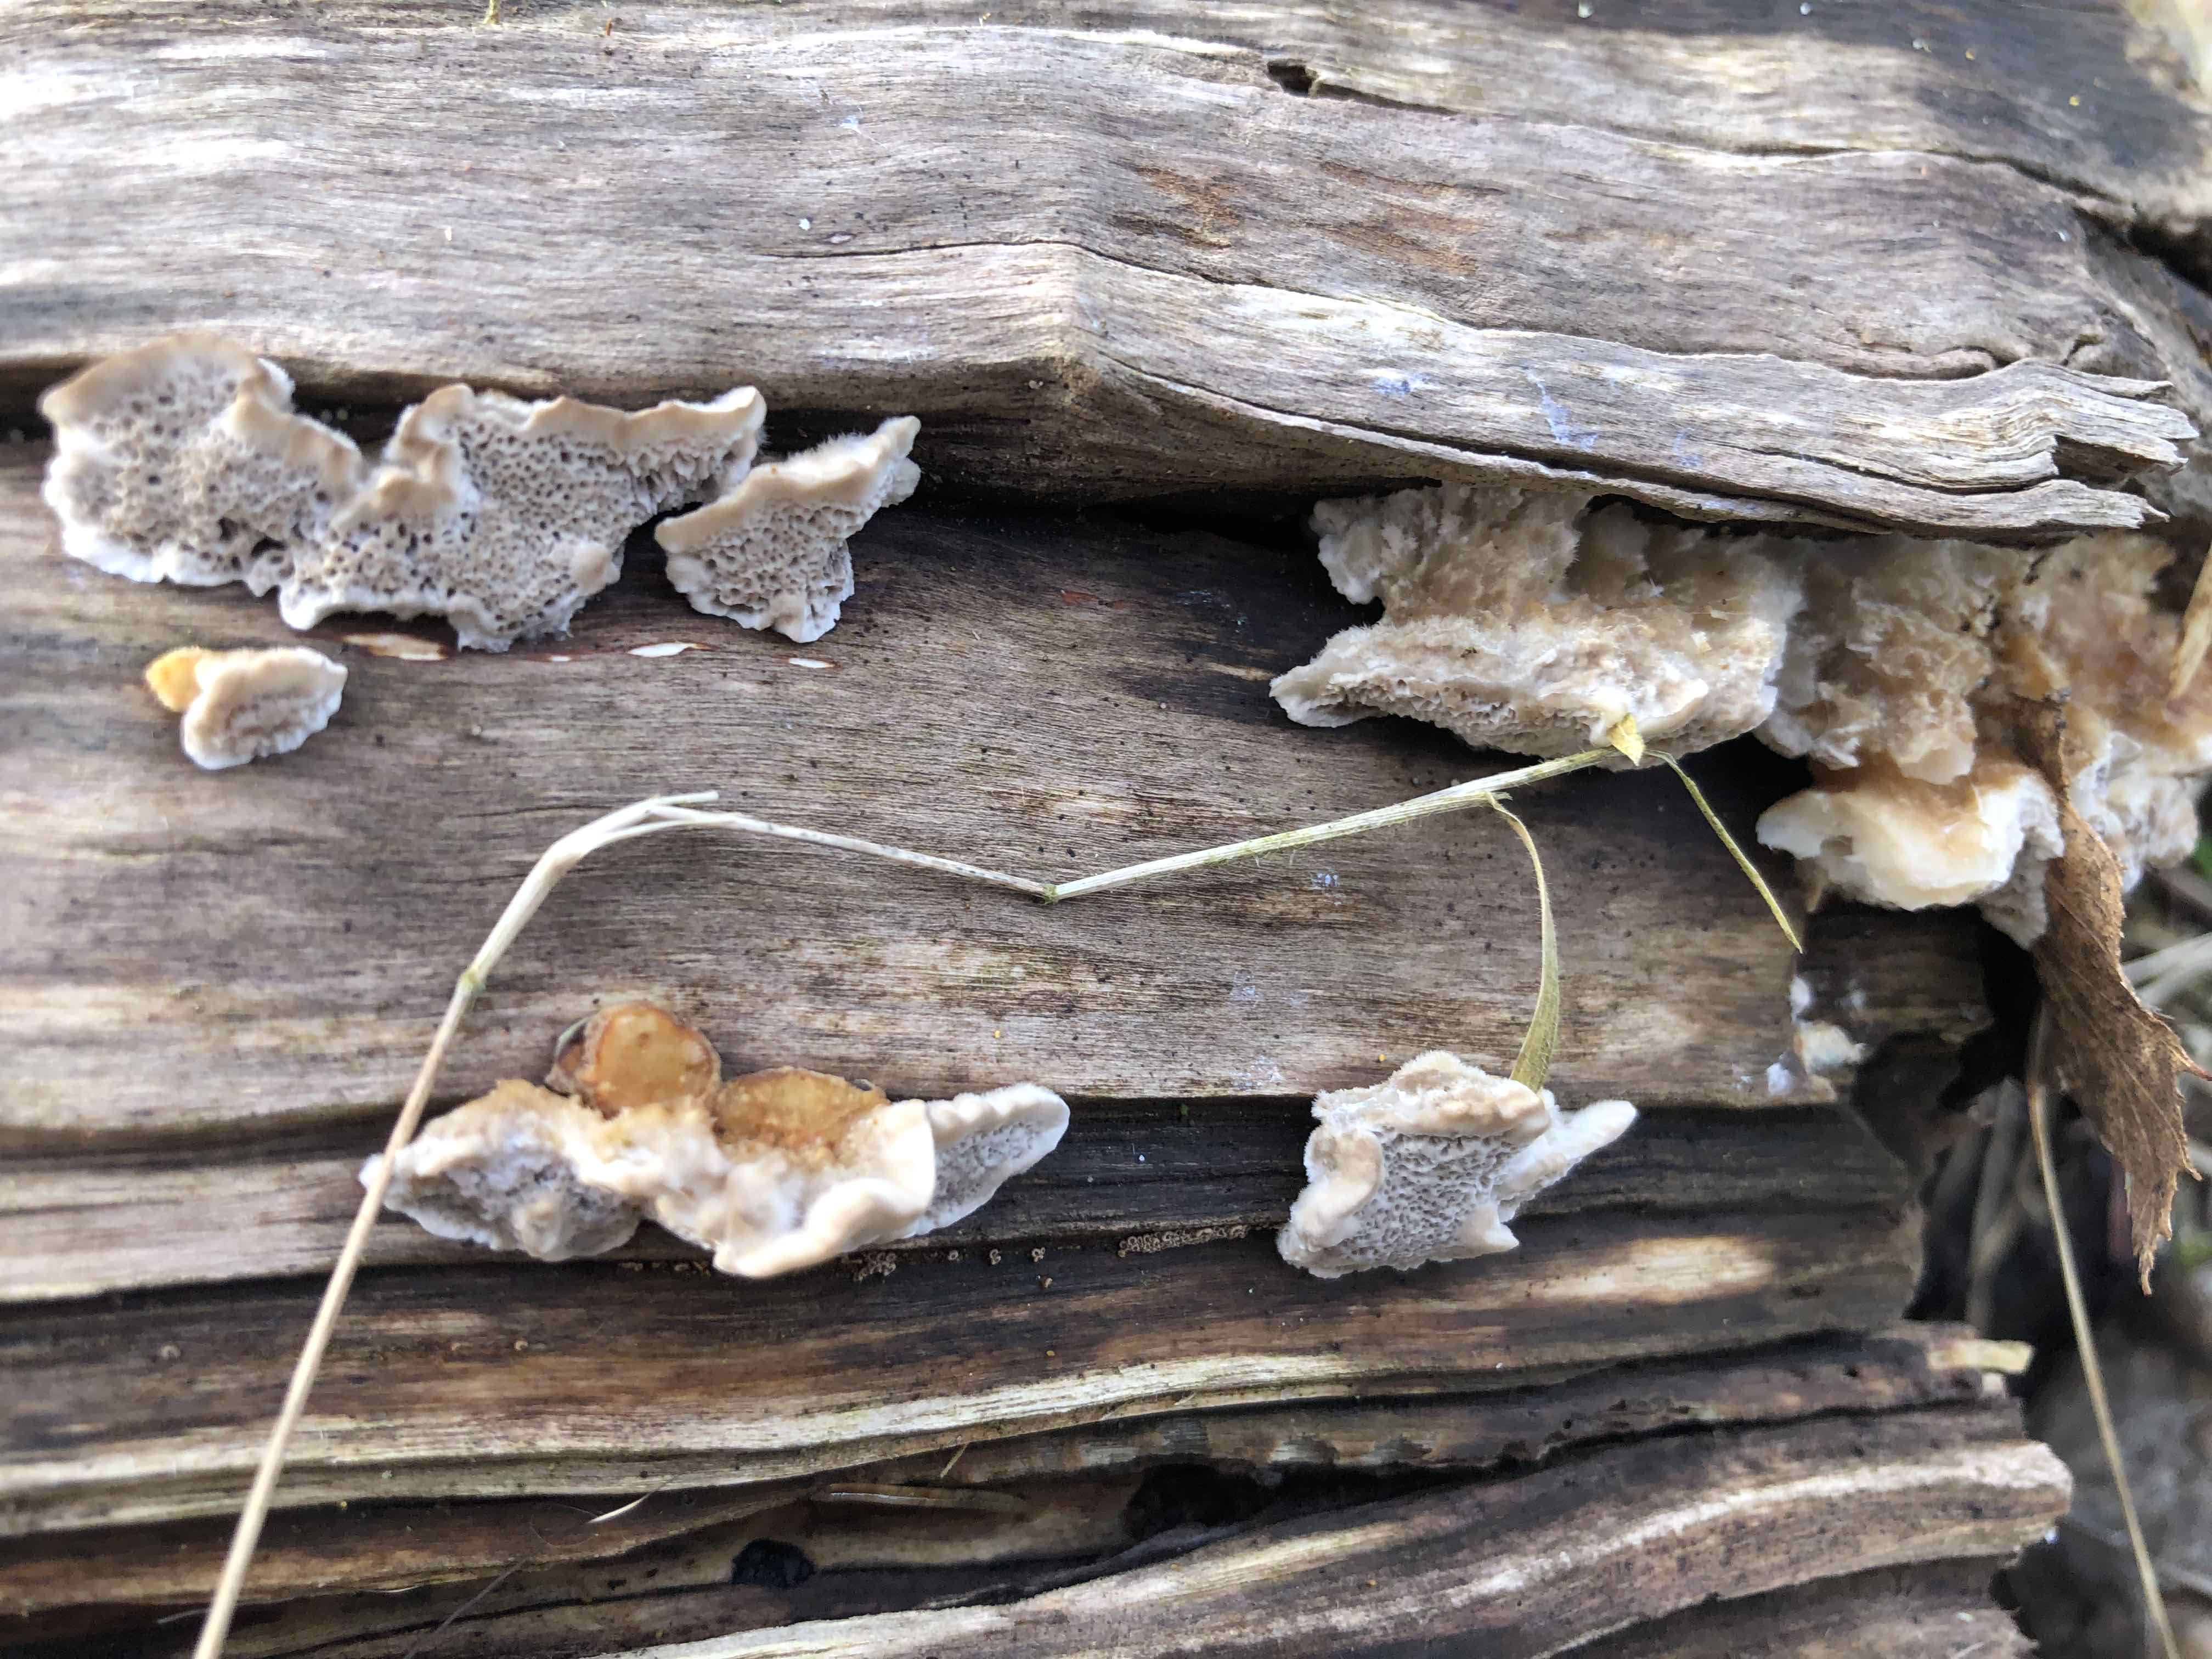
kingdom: Fungi
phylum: Basidiomycota
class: Agaricomycetes
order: Polyporales
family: Phanerochaetaceae
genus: Bjerkandera
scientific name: Bjerkandera adusta
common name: sveden sodporesvamp
